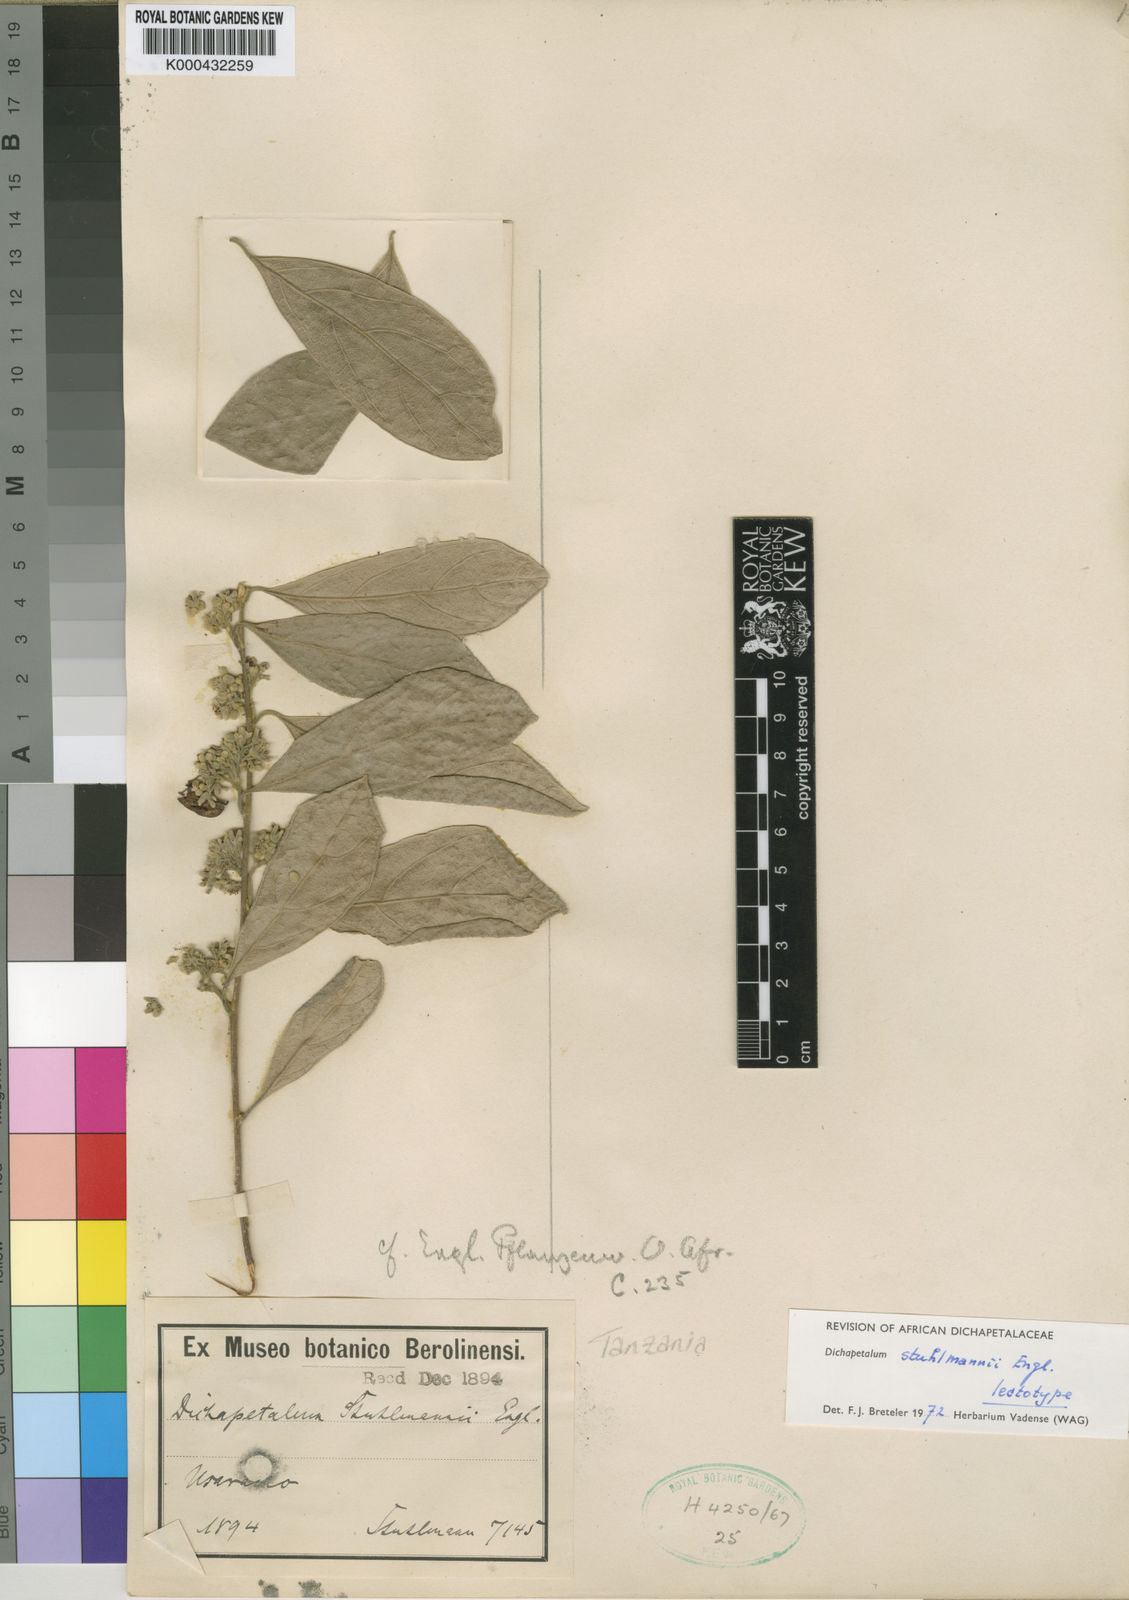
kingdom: Plantae
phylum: Tracheophyta
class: Magnoliopsida
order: Malpighiales
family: Dichapetalaceae
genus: Dichapetalum
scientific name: Dichapetalum stuhlmannii
